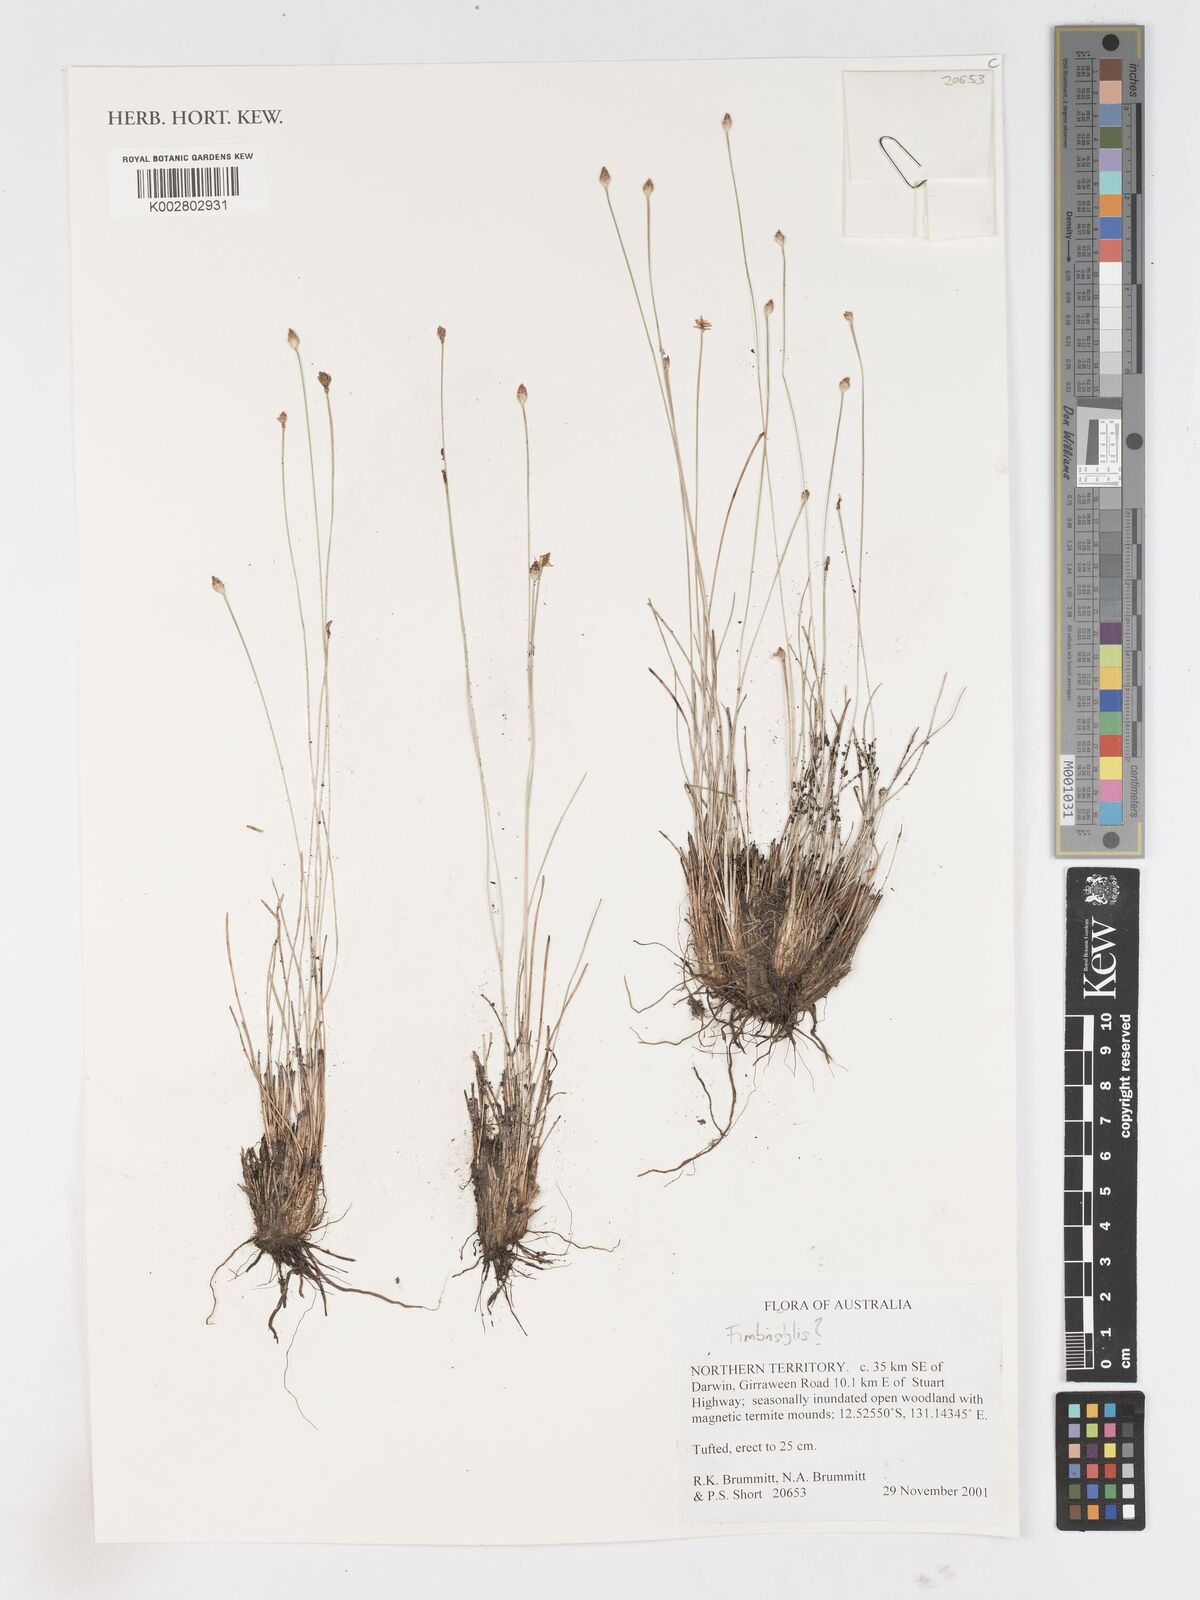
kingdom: Plantae
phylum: Tracheophyta
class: Liliopsida
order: Poales
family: Cyperaceae
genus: Fimbristylis
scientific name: Fimbristylis
